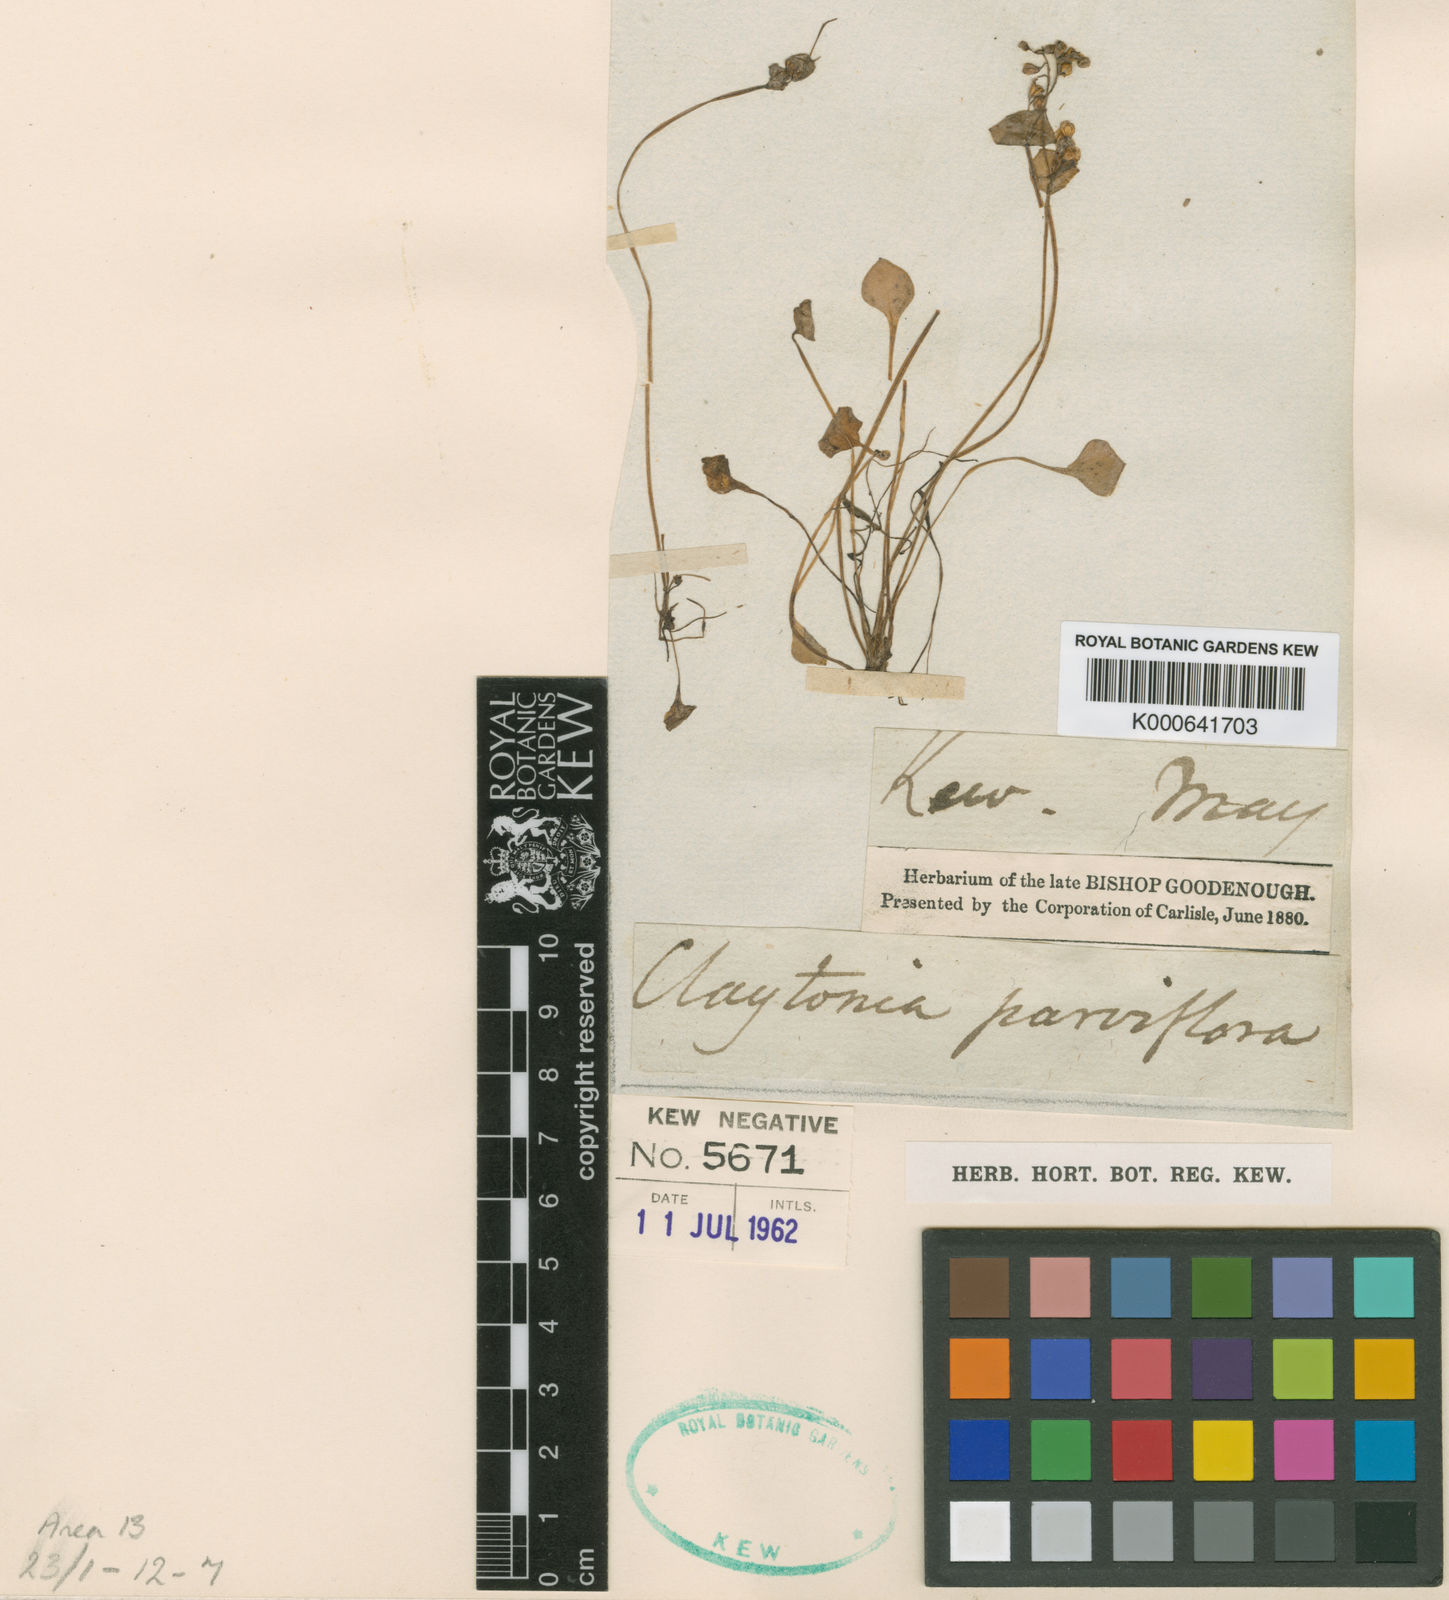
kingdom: Plantae
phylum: Tracheophyta
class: Magnoliopsida
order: Caryophyllales
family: Montiaceae
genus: Claytonia
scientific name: Claytonia parviflora
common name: Indian-lettuce
